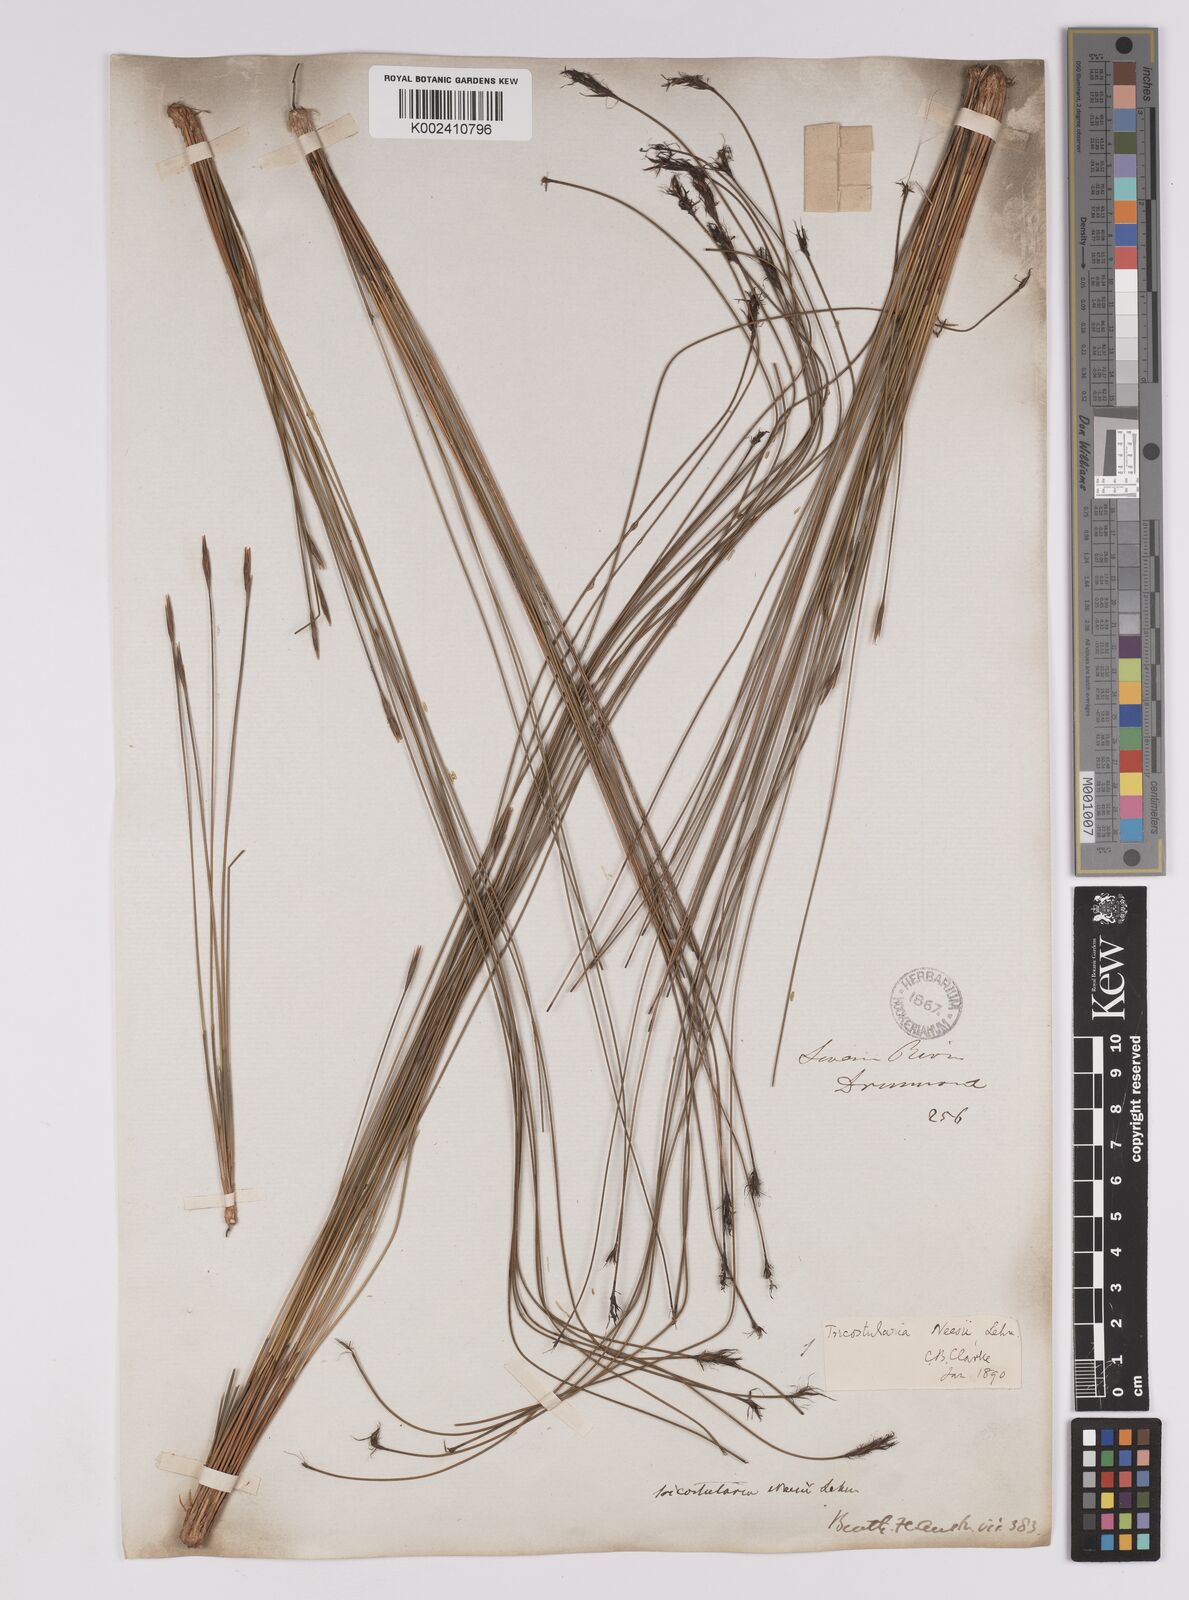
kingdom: Plantae
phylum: Tracheophyta
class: Liliopsida
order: Poales
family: Cyperaceae
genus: Tricostularia
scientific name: Tricostularia neesii
